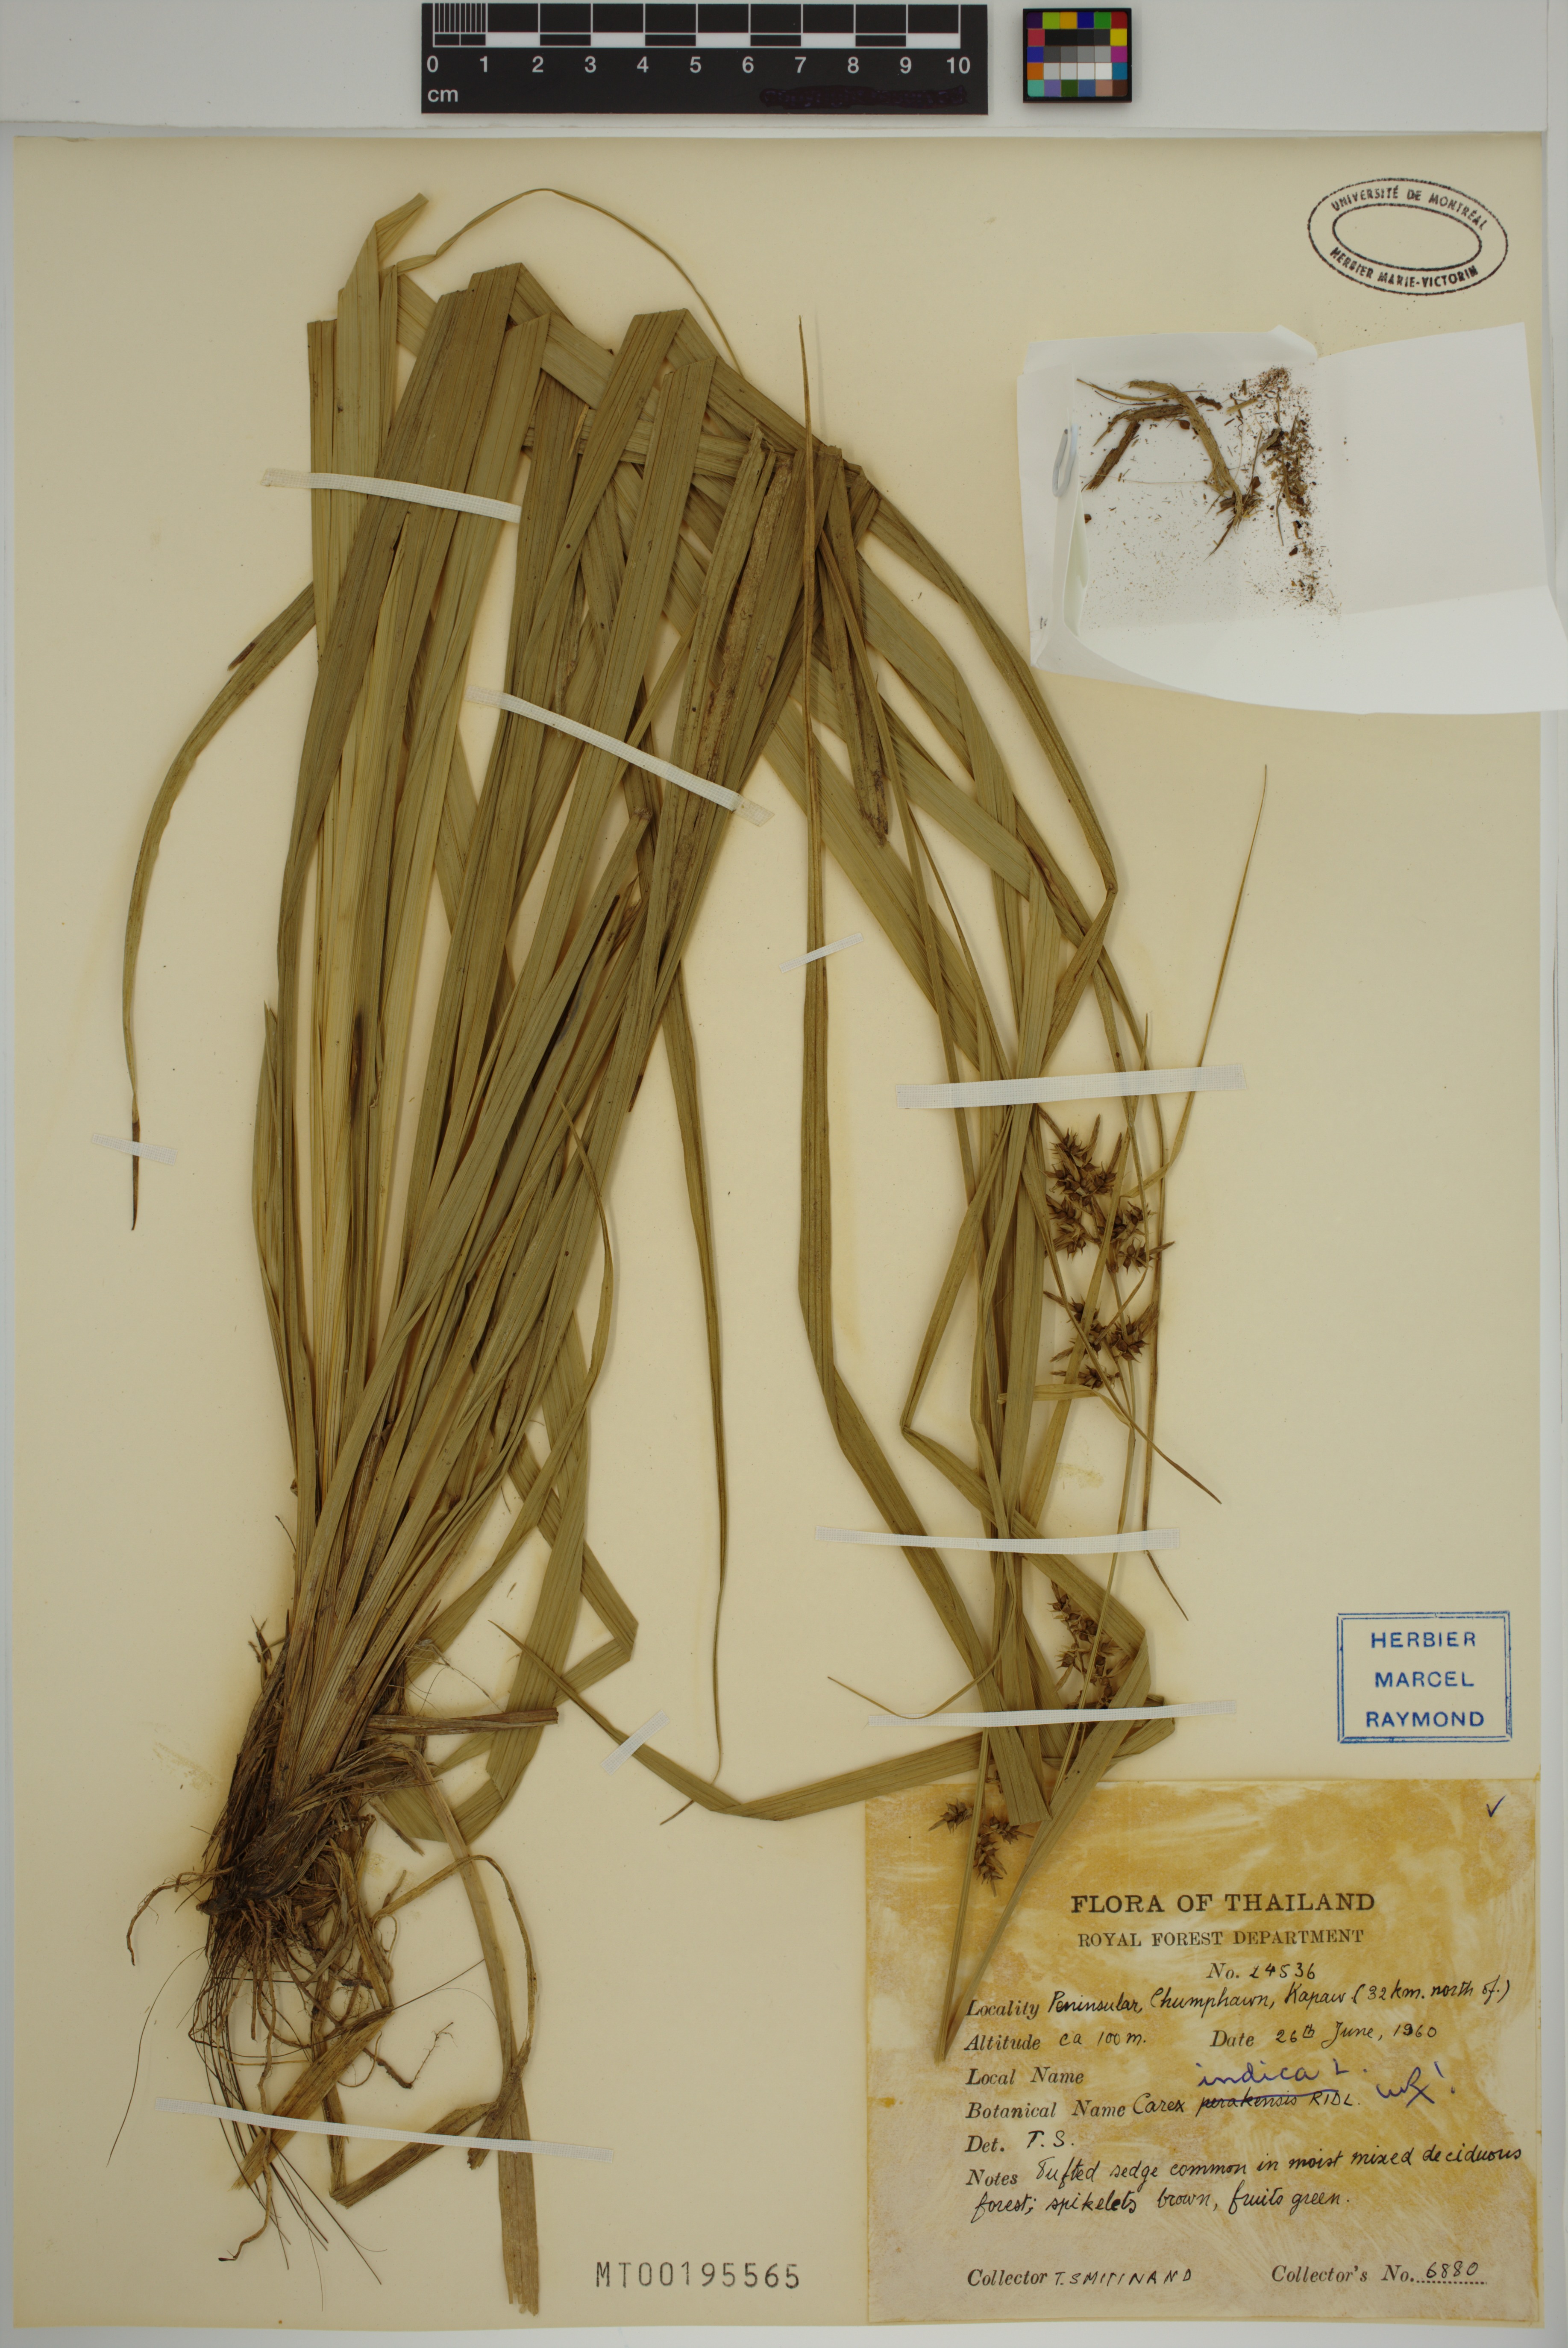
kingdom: Plantae
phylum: Tracheophyta
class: Liliopsida
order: Poales
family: Cyperaceae
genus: Carex
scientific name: Carex indica
